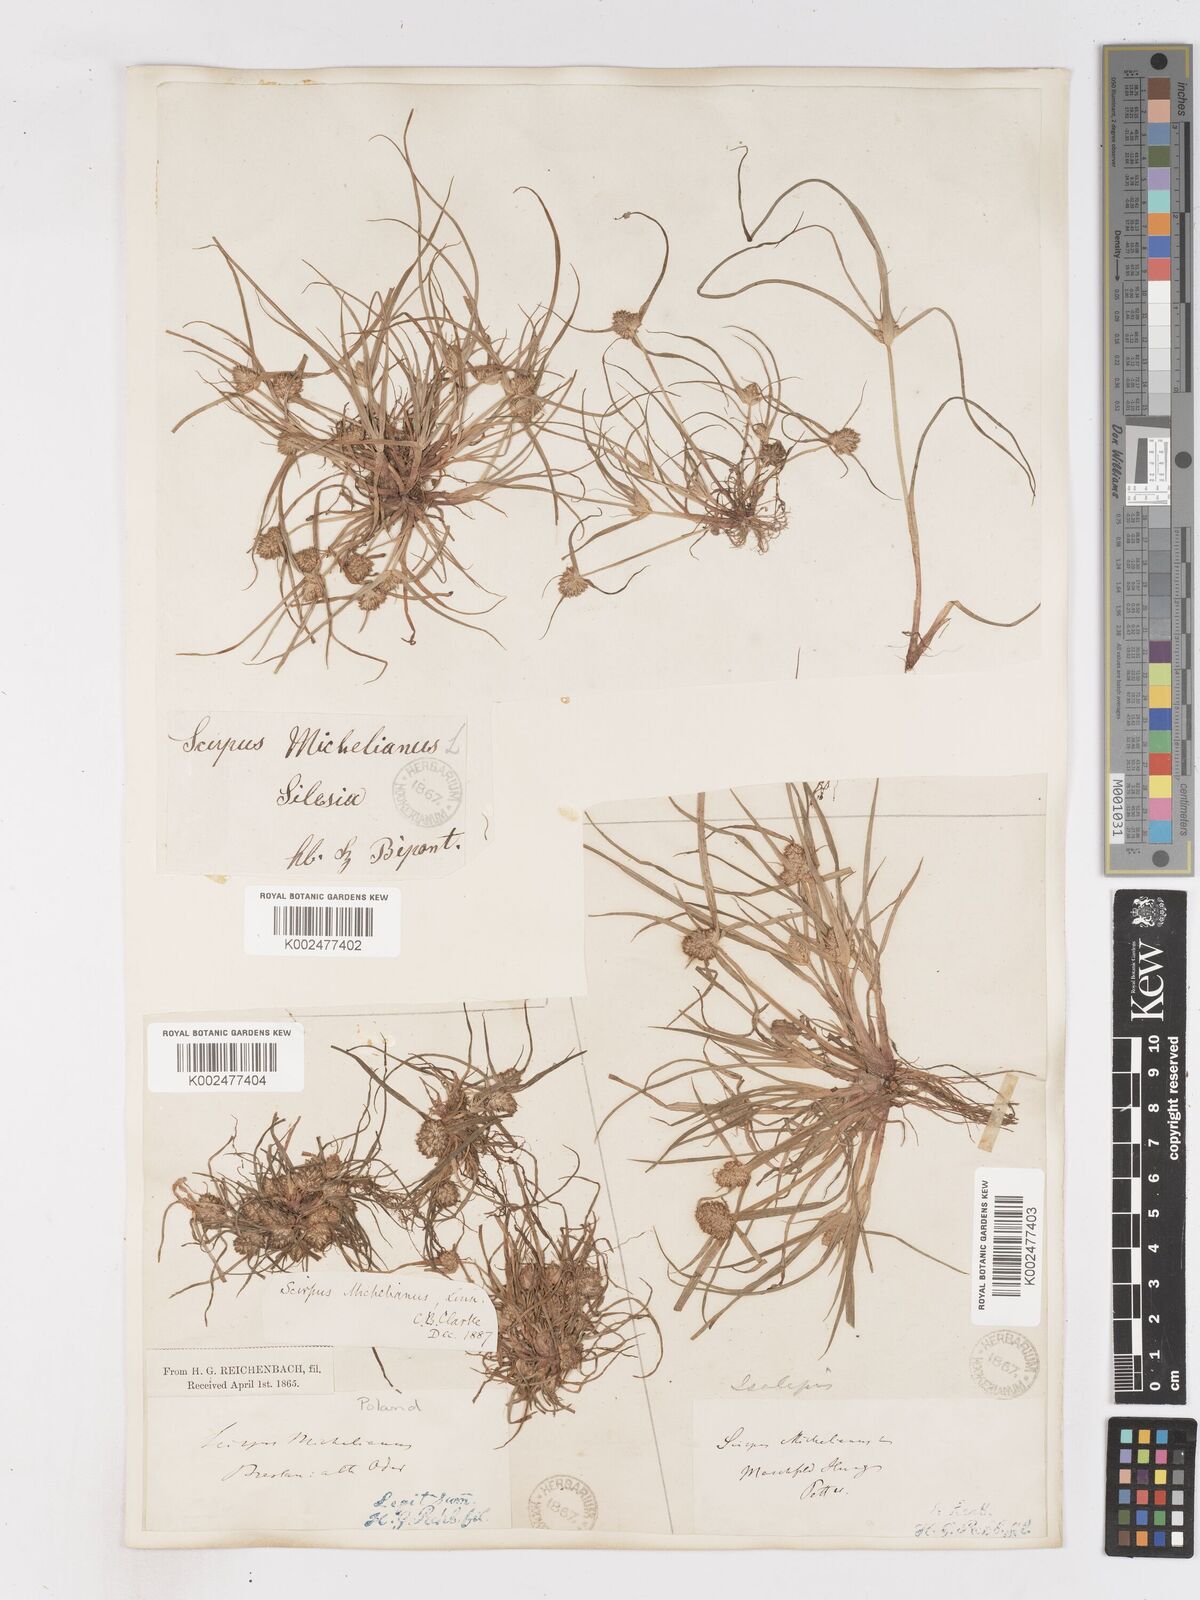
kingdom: Plantae
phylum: Tracheophyta
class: Liliopsida
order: Poales
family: Cyperaceae
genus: Cyperus
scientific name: Cyperus michelianus
